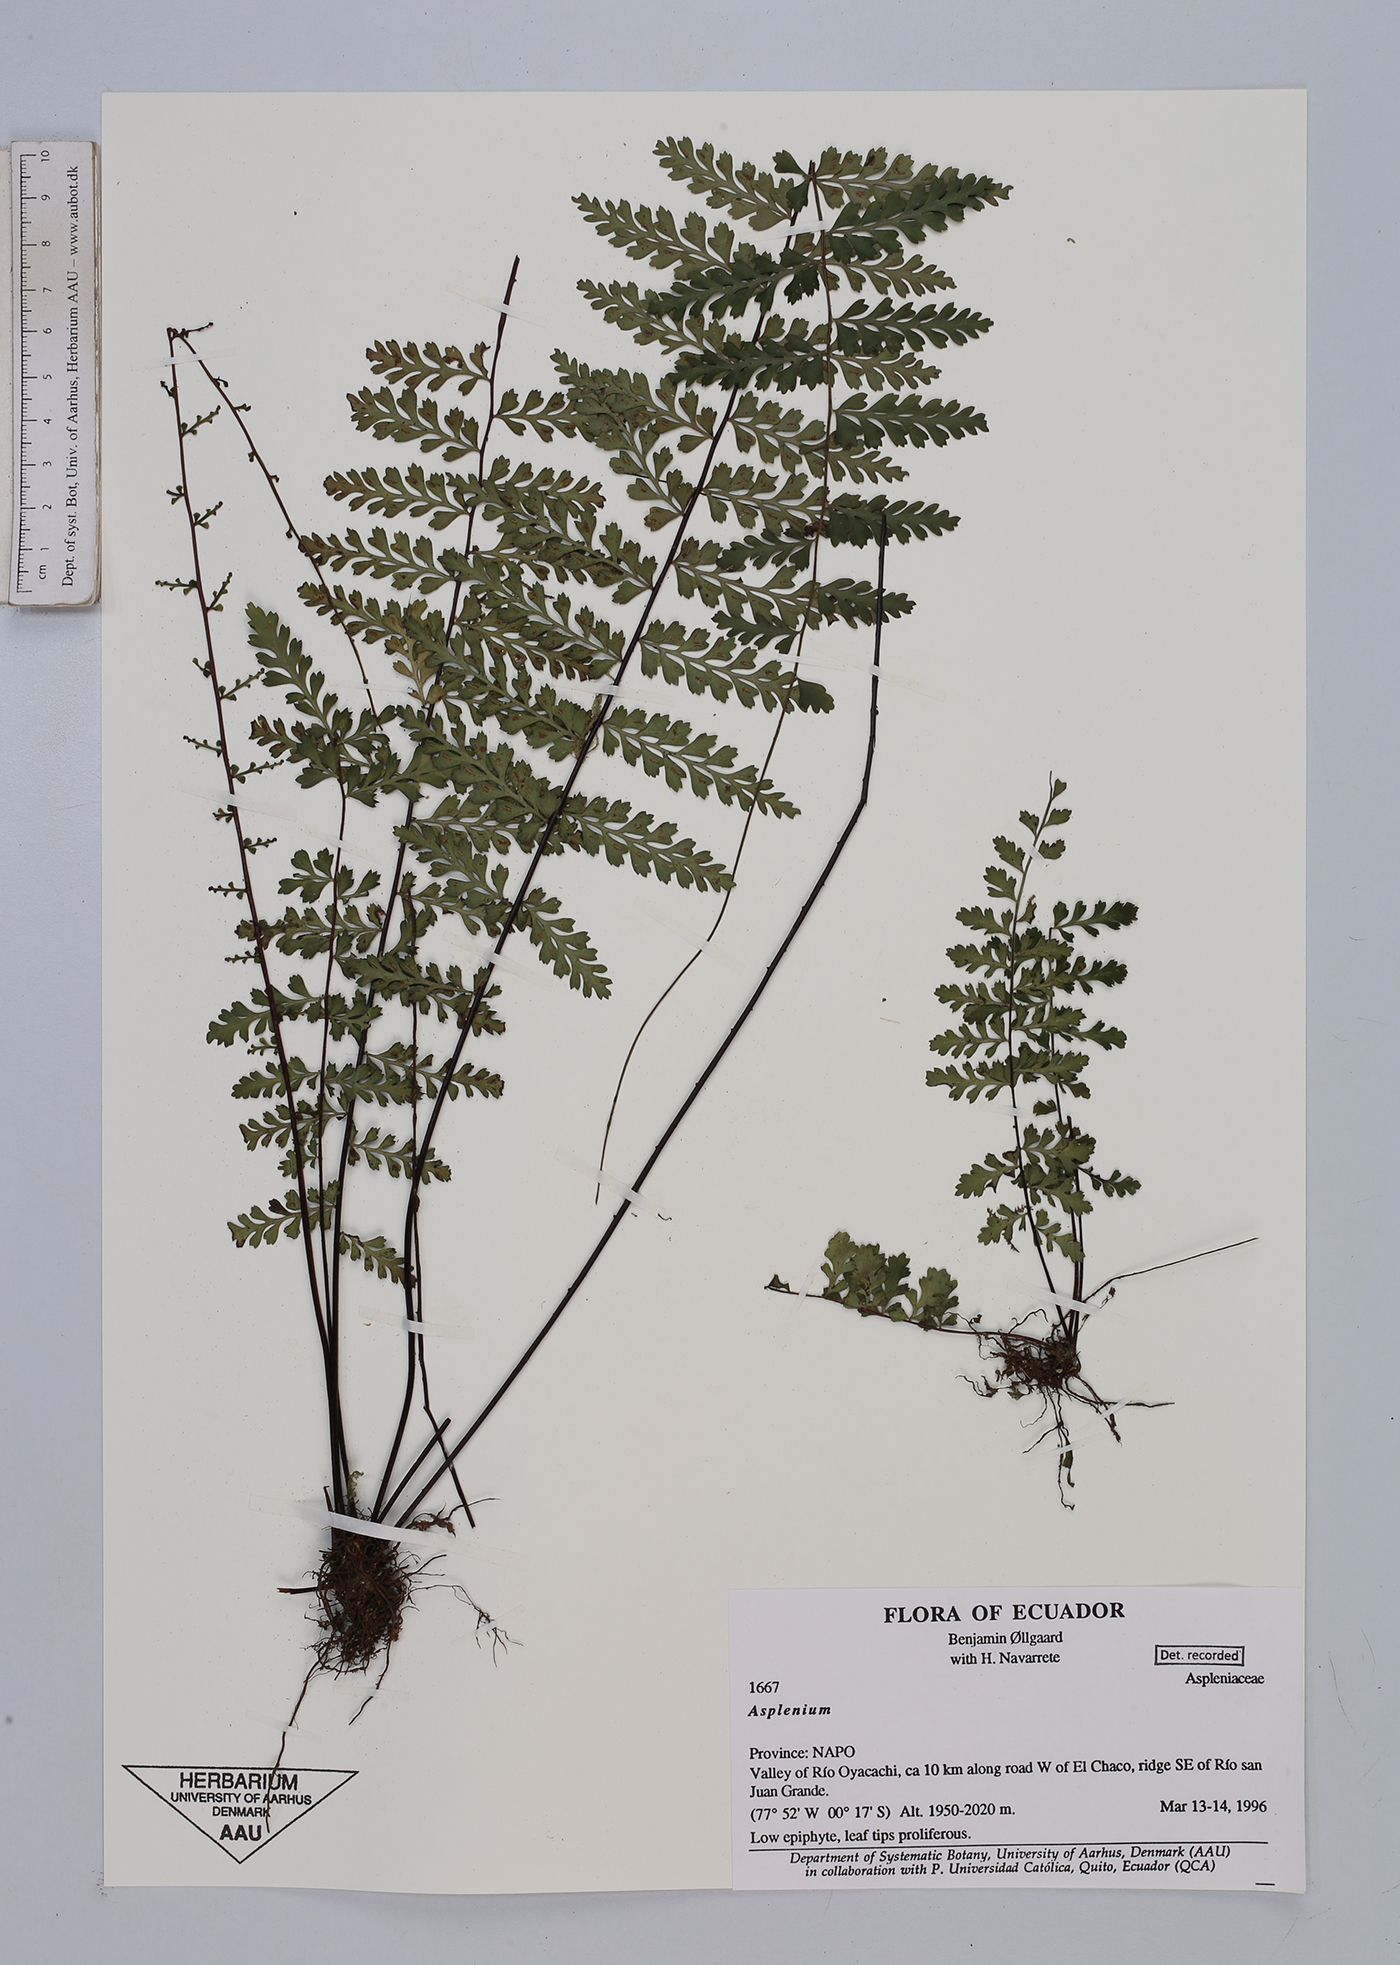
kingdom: Plantae
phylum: Tracheophyta
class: Polypodiopsida
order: Polypodiales
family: Aspleniaceae
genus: Asplenium
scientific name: Asplenium
